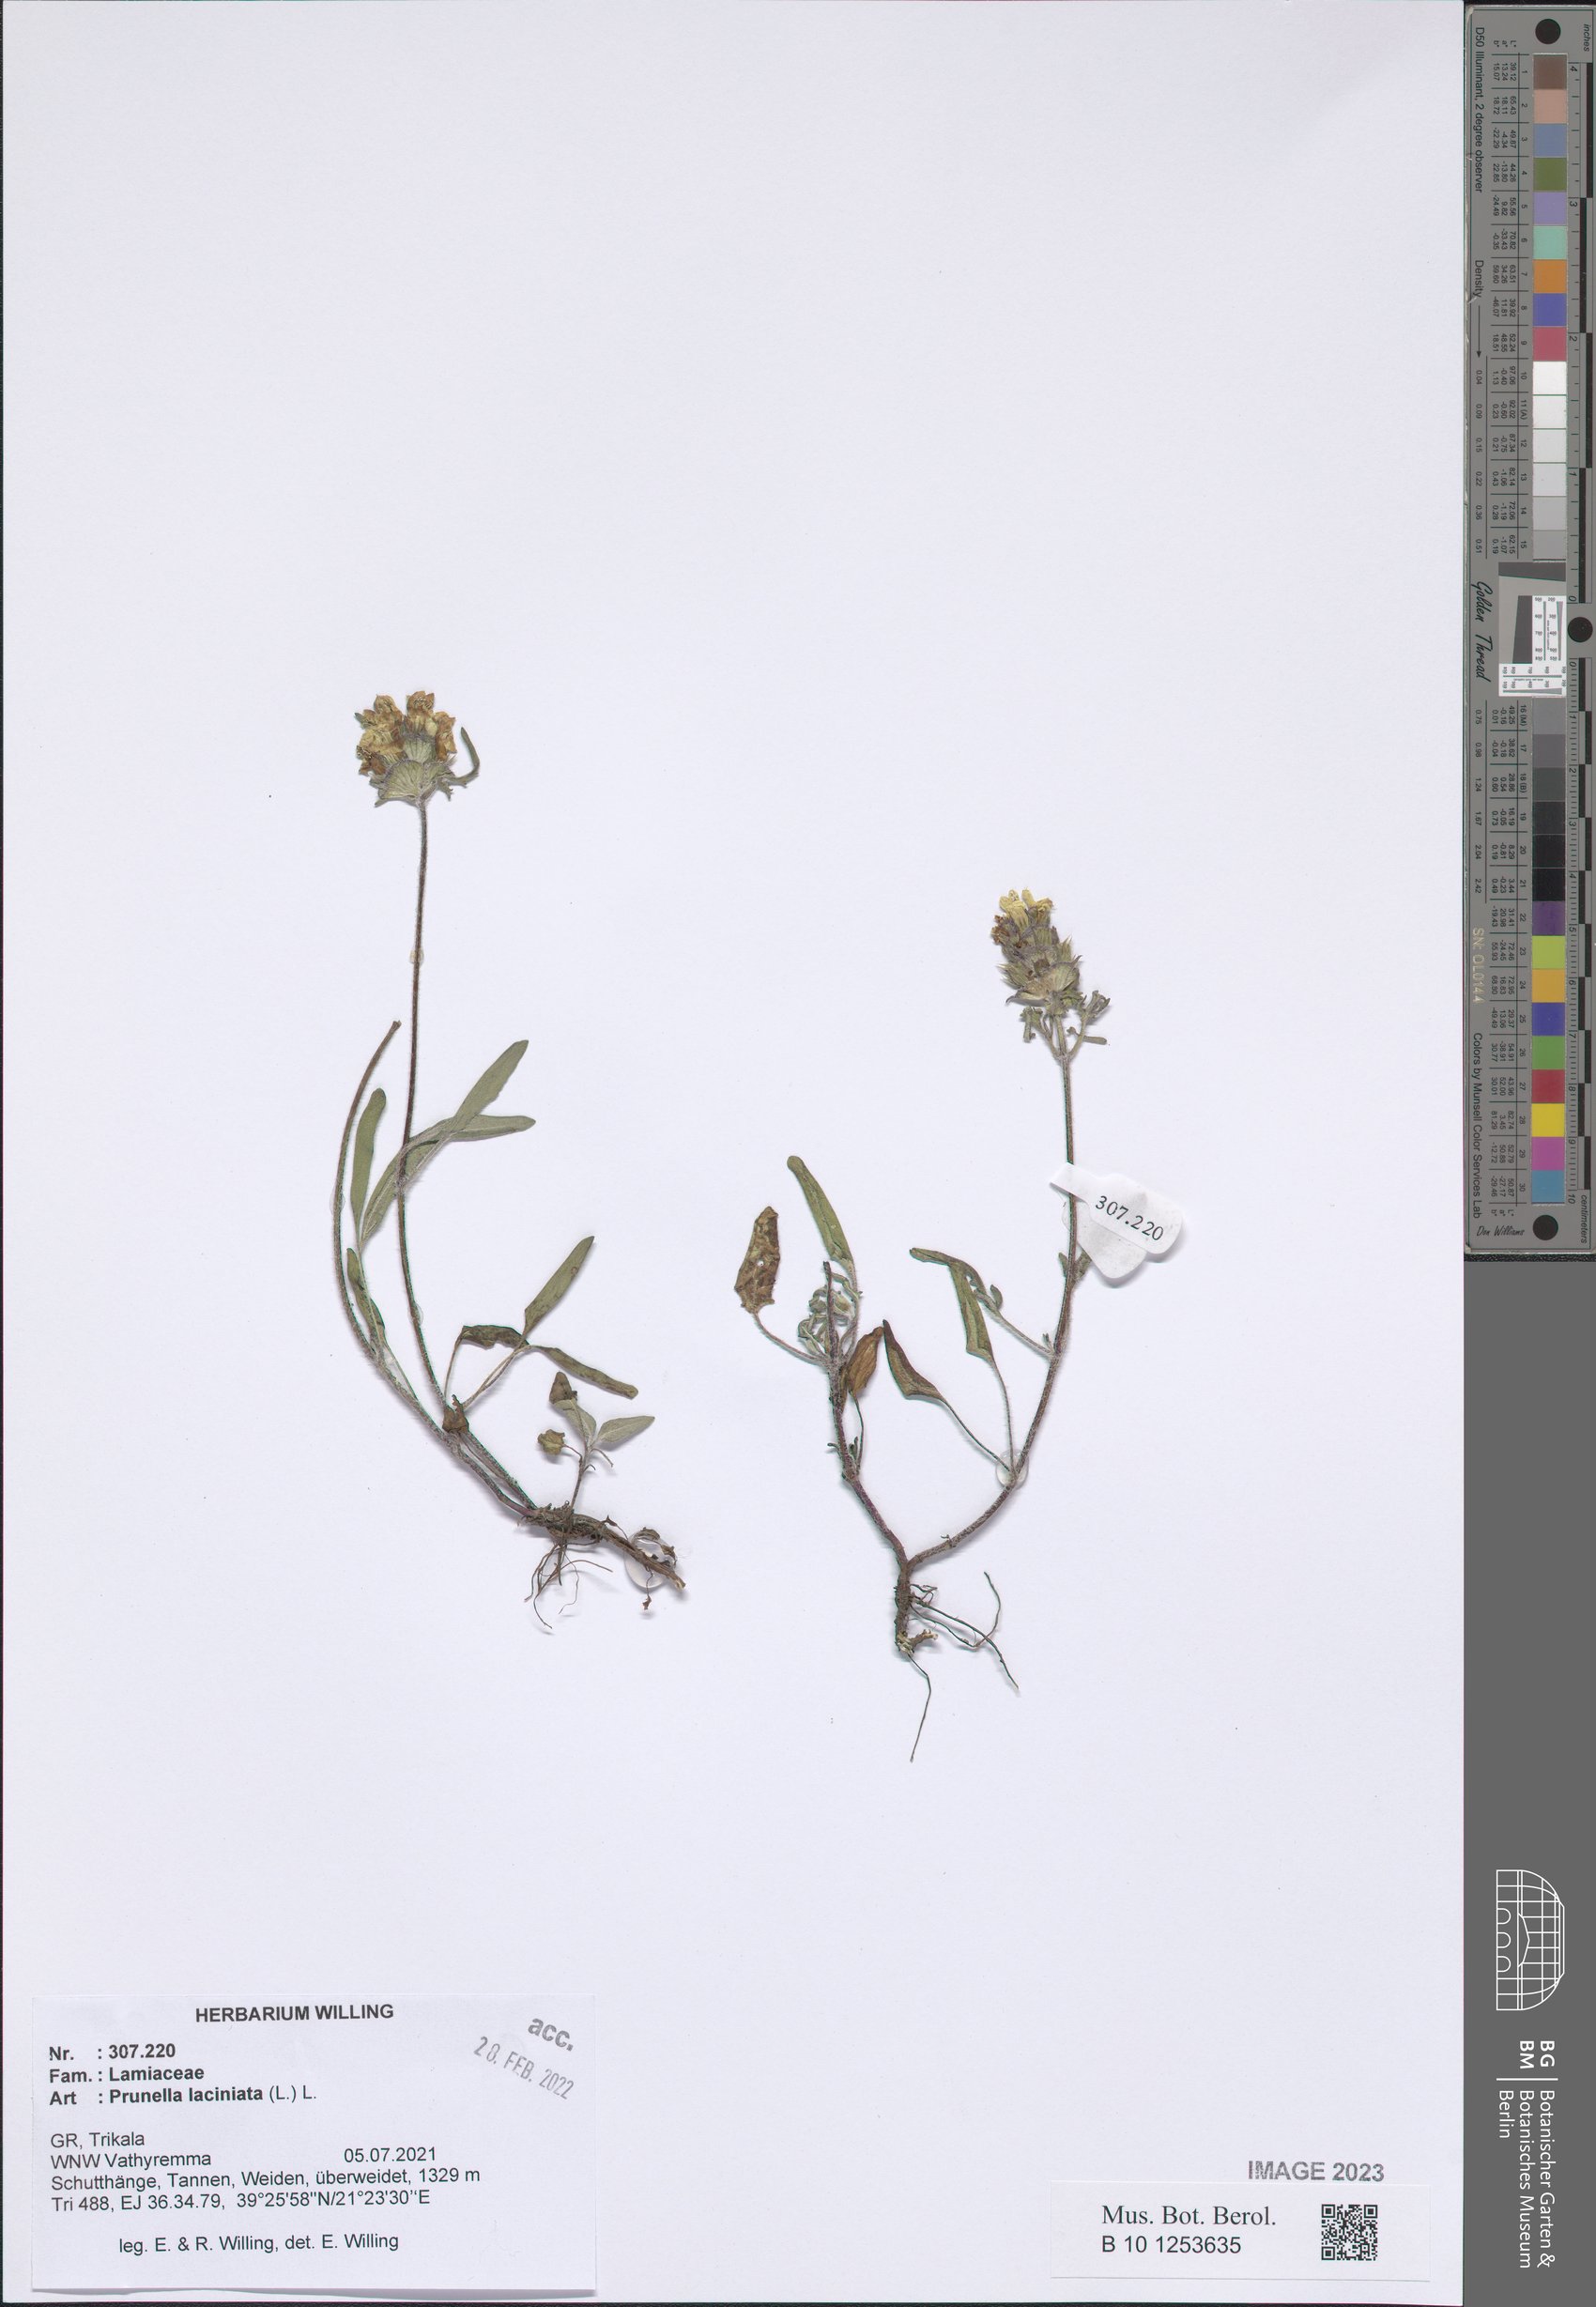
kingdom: Plantae
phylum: Tracheophyta
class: Magnoliopsida
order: Lamiales
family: Lamiaceae
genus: Prunella
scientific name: Prunella laciniata
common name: Cut-leaved selfheal
